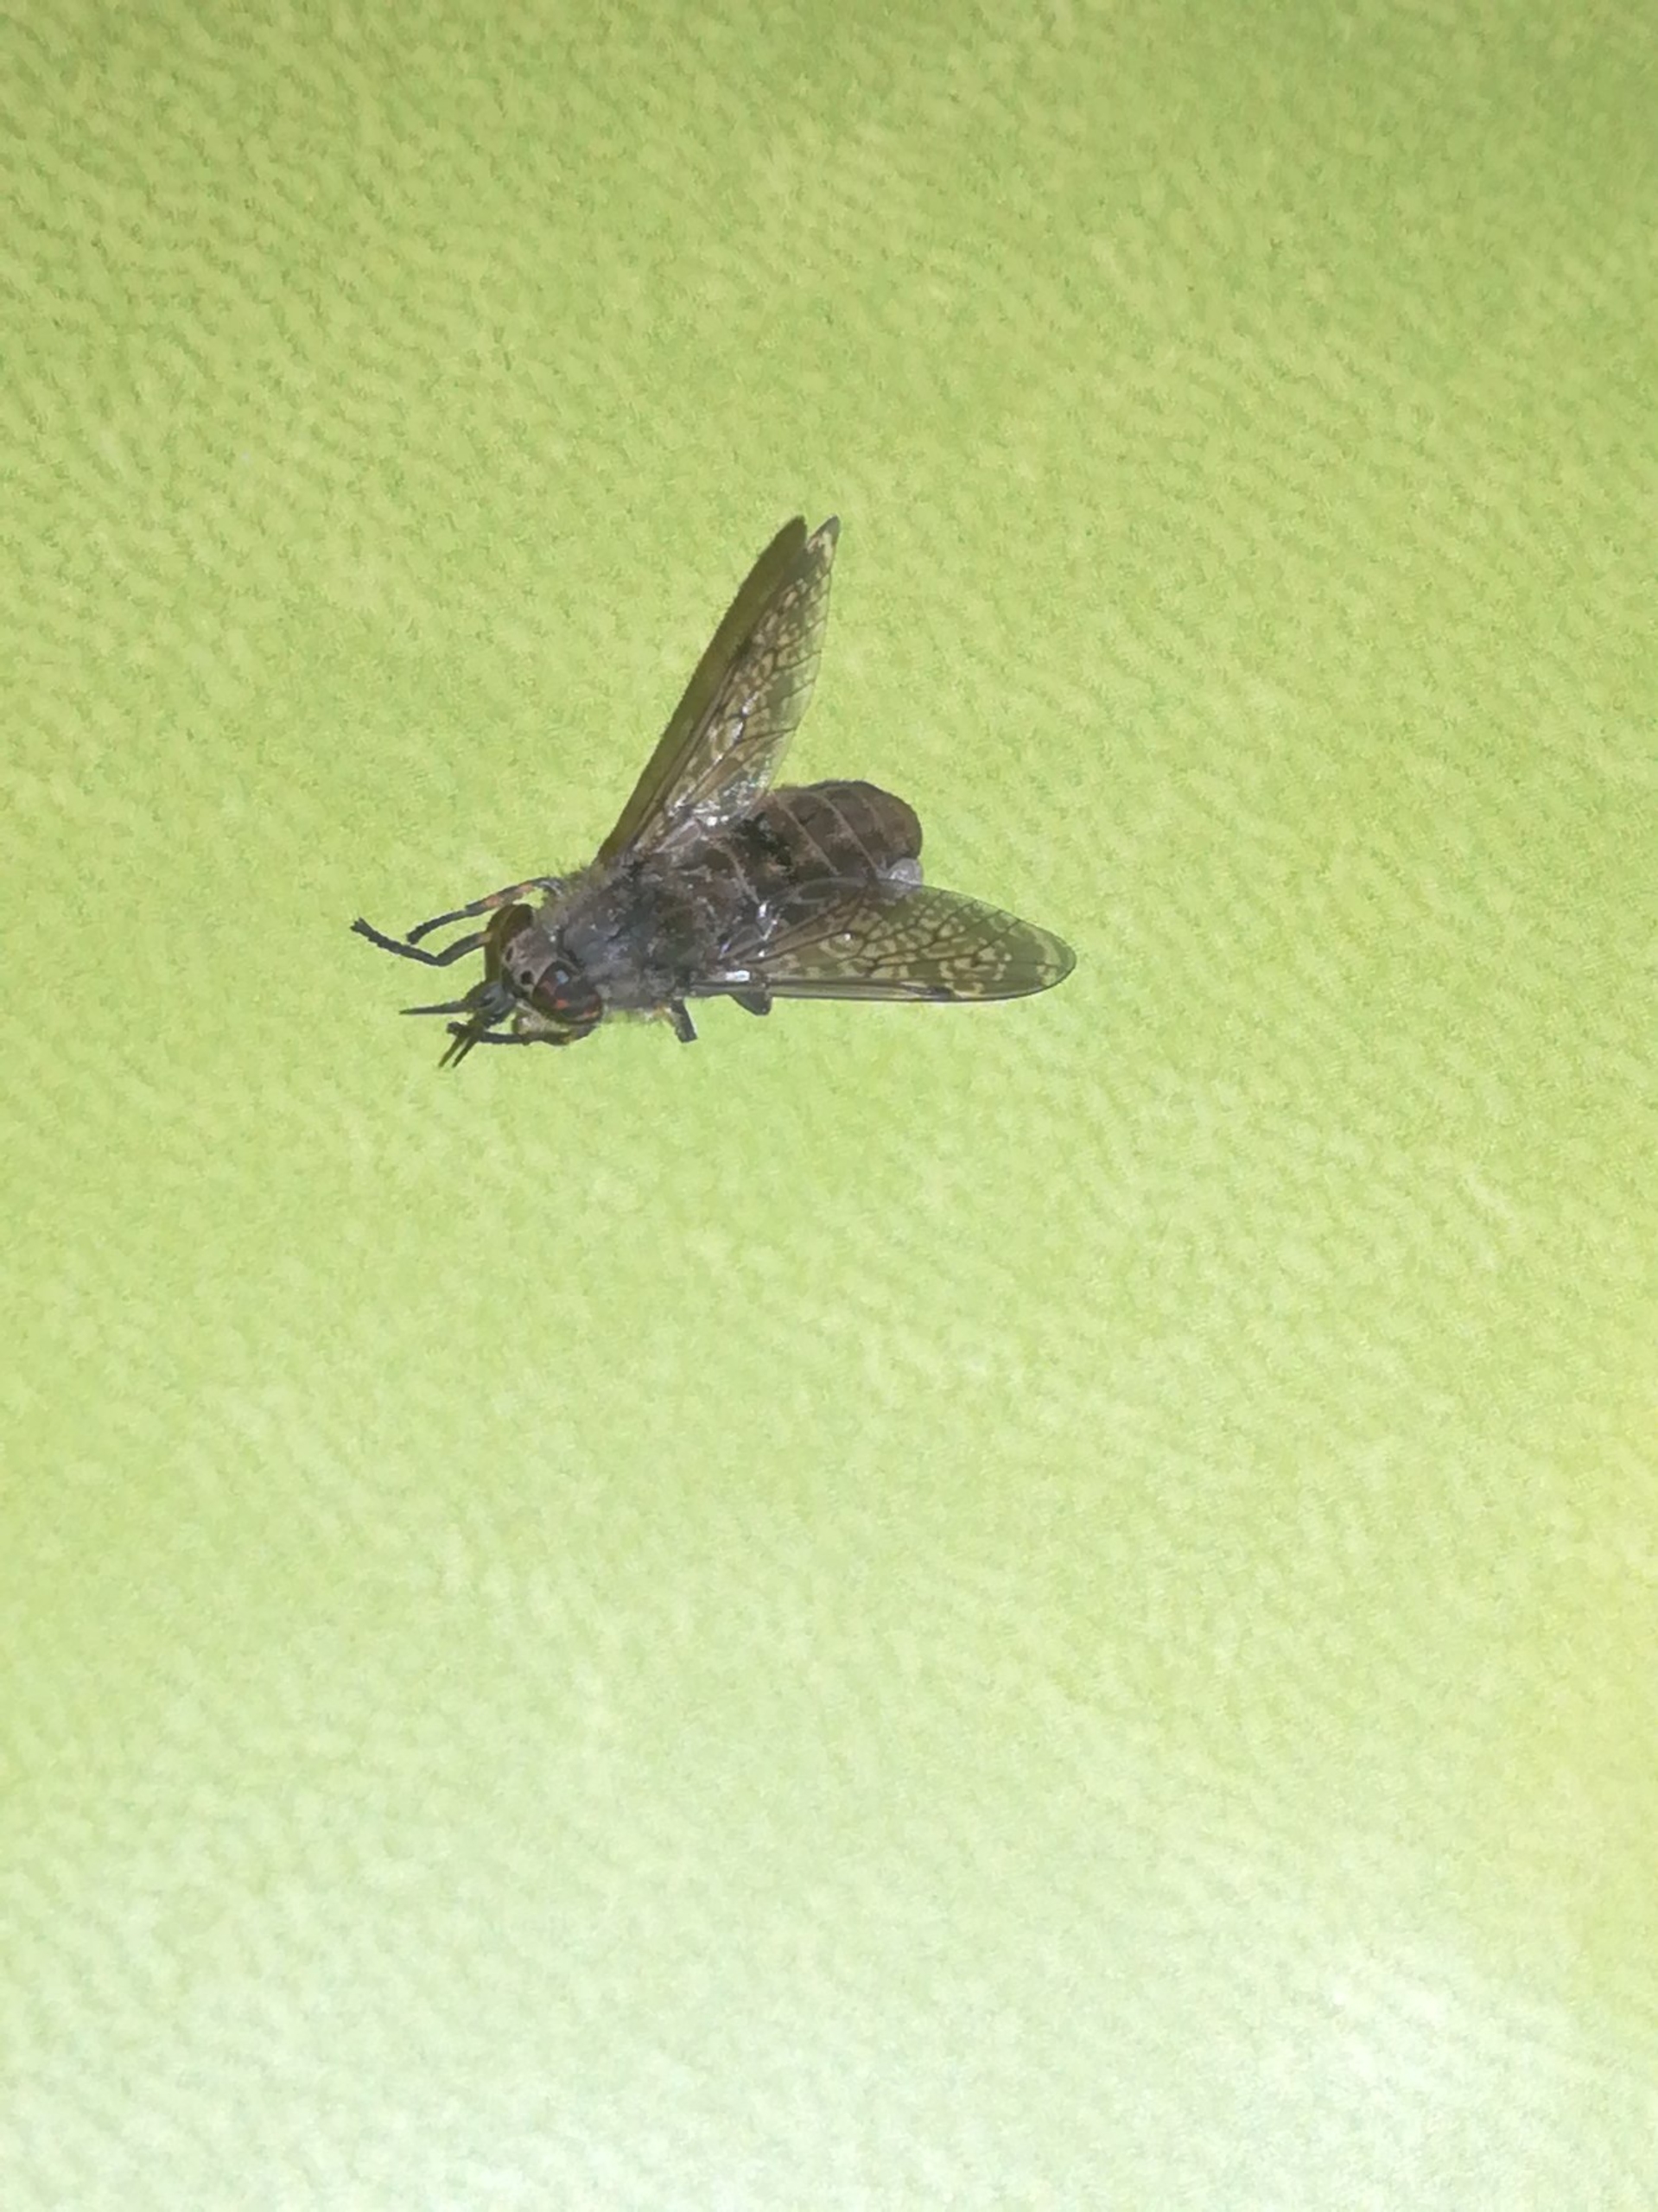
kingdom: Animalia
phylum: Arthropoda
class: Insecta
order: Diptera
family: Tabanidae
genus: Haematopota
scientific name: Haematopota pluvialis
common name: Regnklæg
